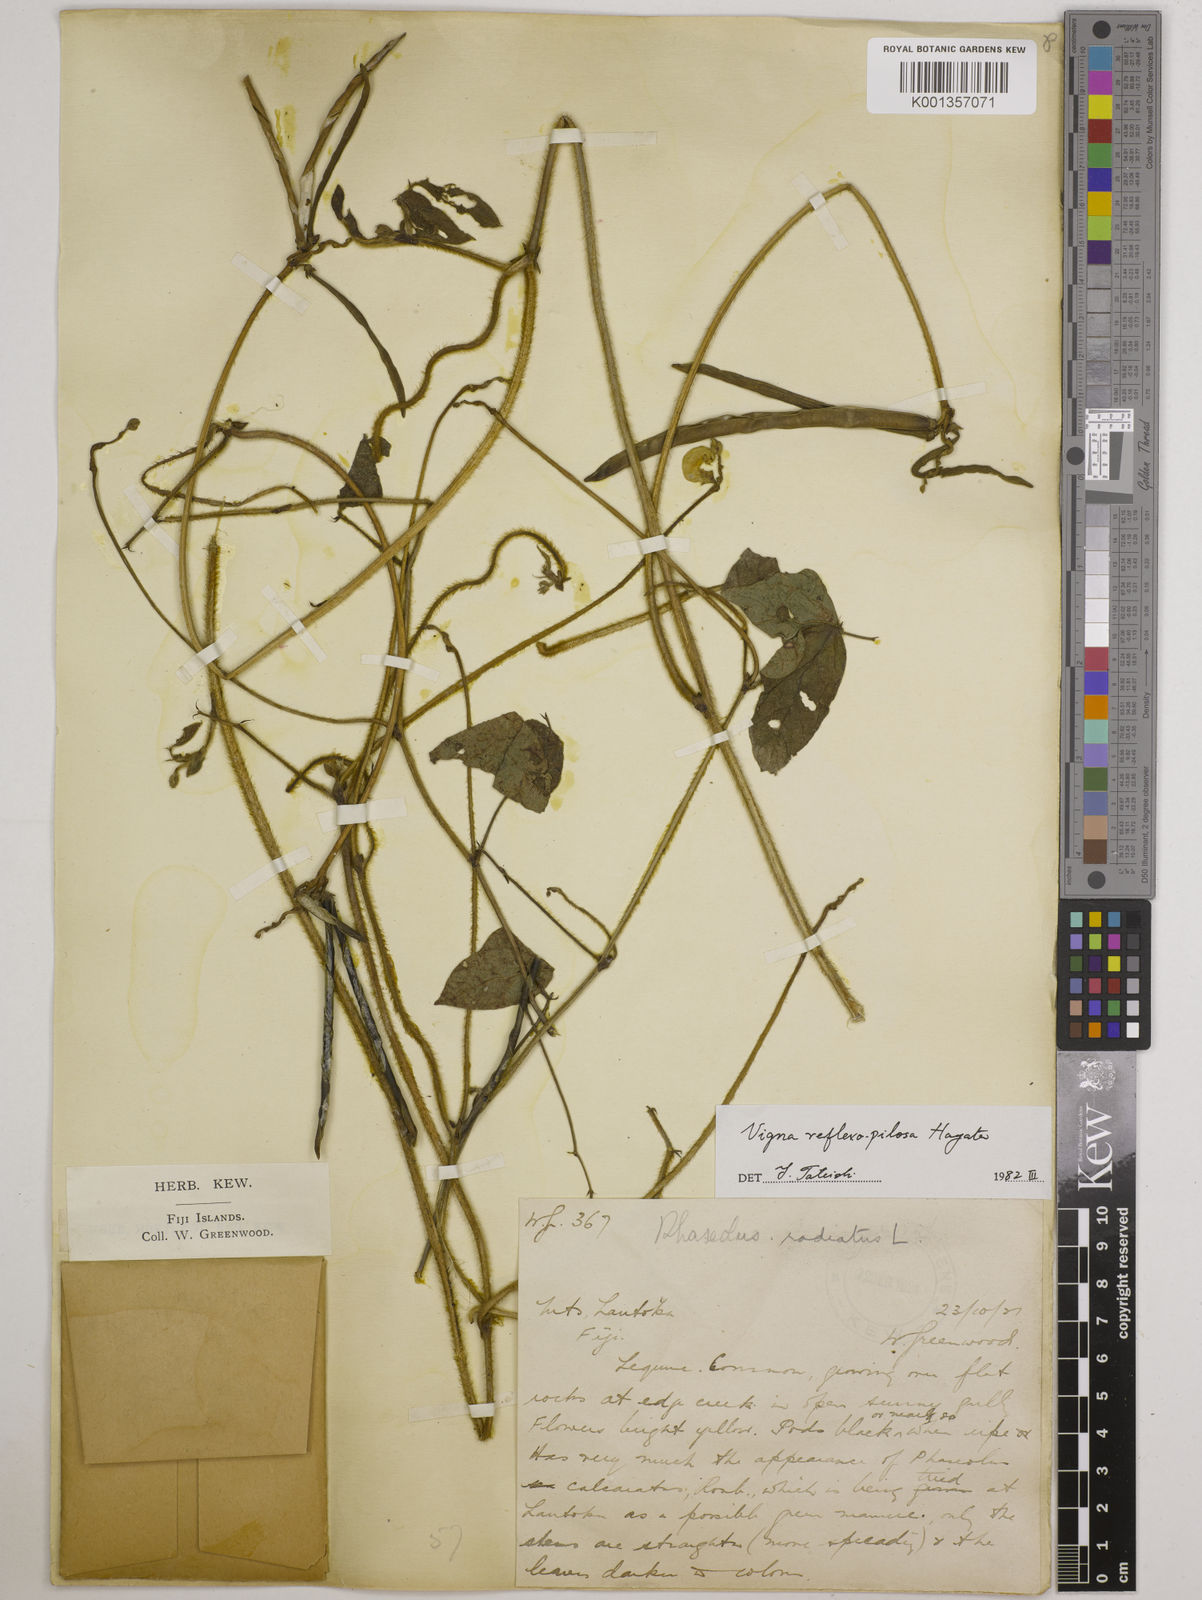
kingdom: Plantae
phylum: Tracheophyta
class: Magnoliopsida
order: Fabales
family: Fabaceae
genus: Vigna
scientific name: Vigna reflexopilosa
